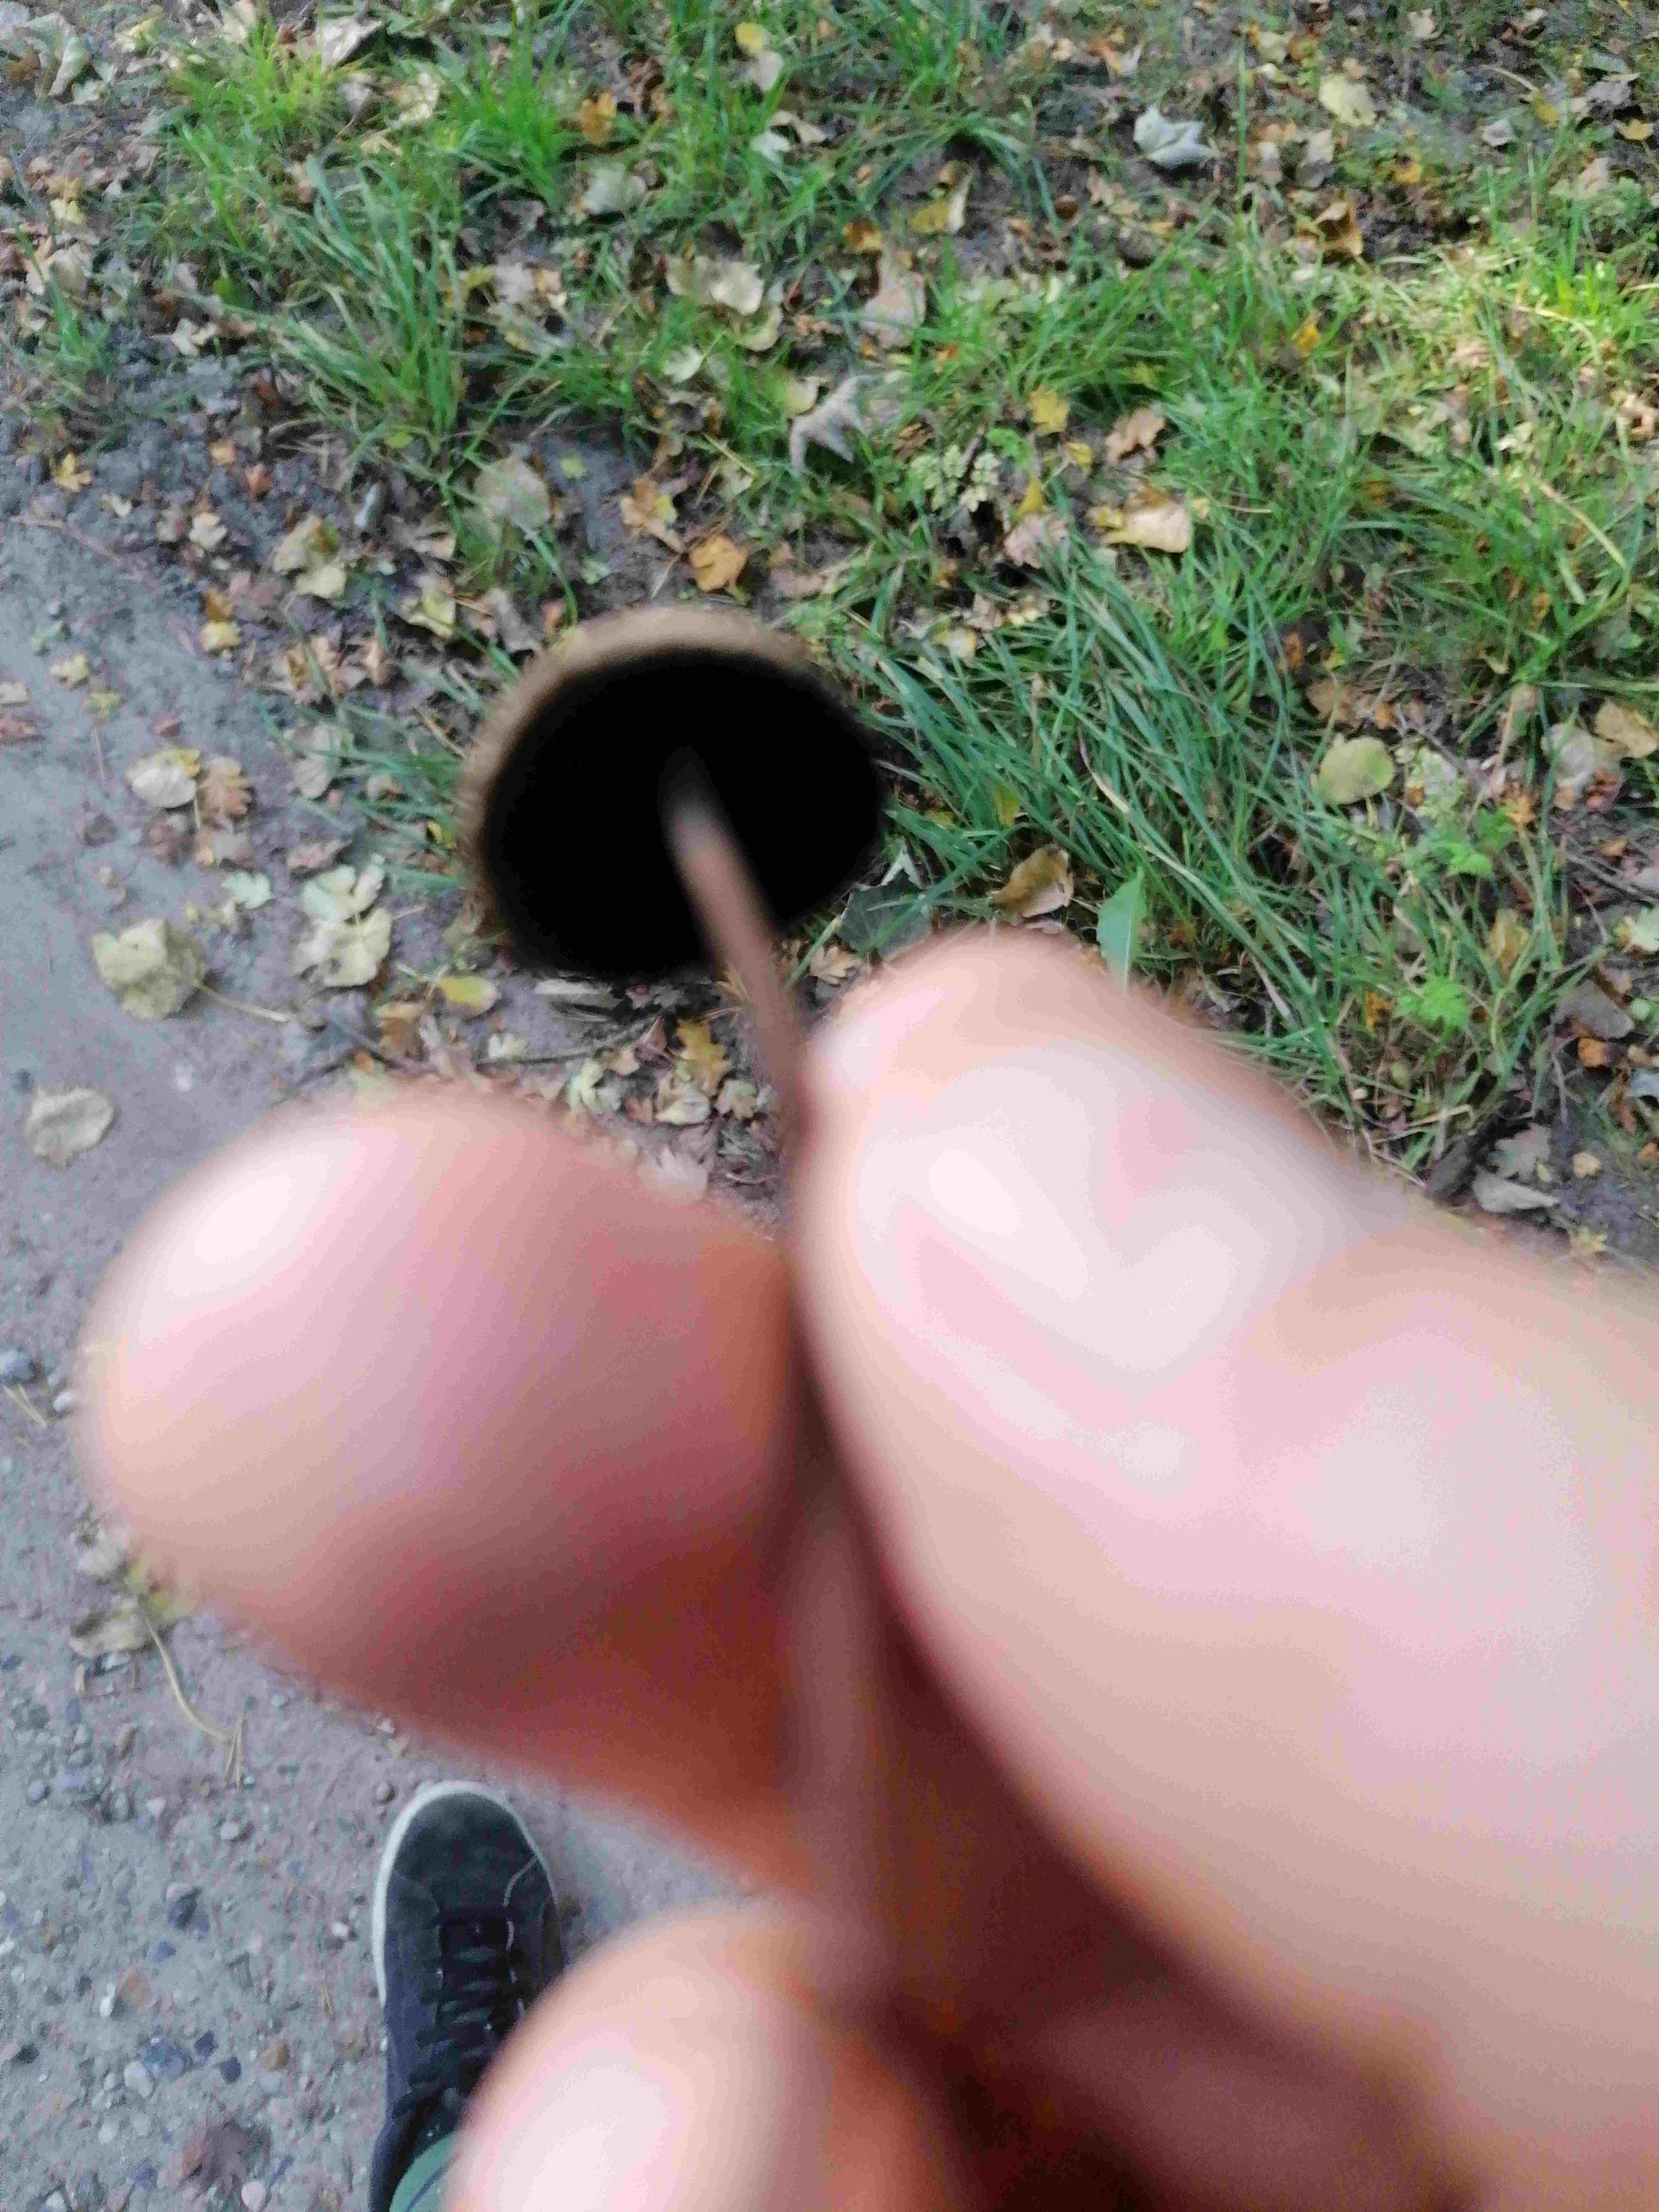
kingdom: Fungi
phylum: Basidiomycota
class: Agaricomycetes
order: Agaricales
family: Bolbitiaceae
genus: Panaeolus
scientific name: Panaeolus papilionaceus
